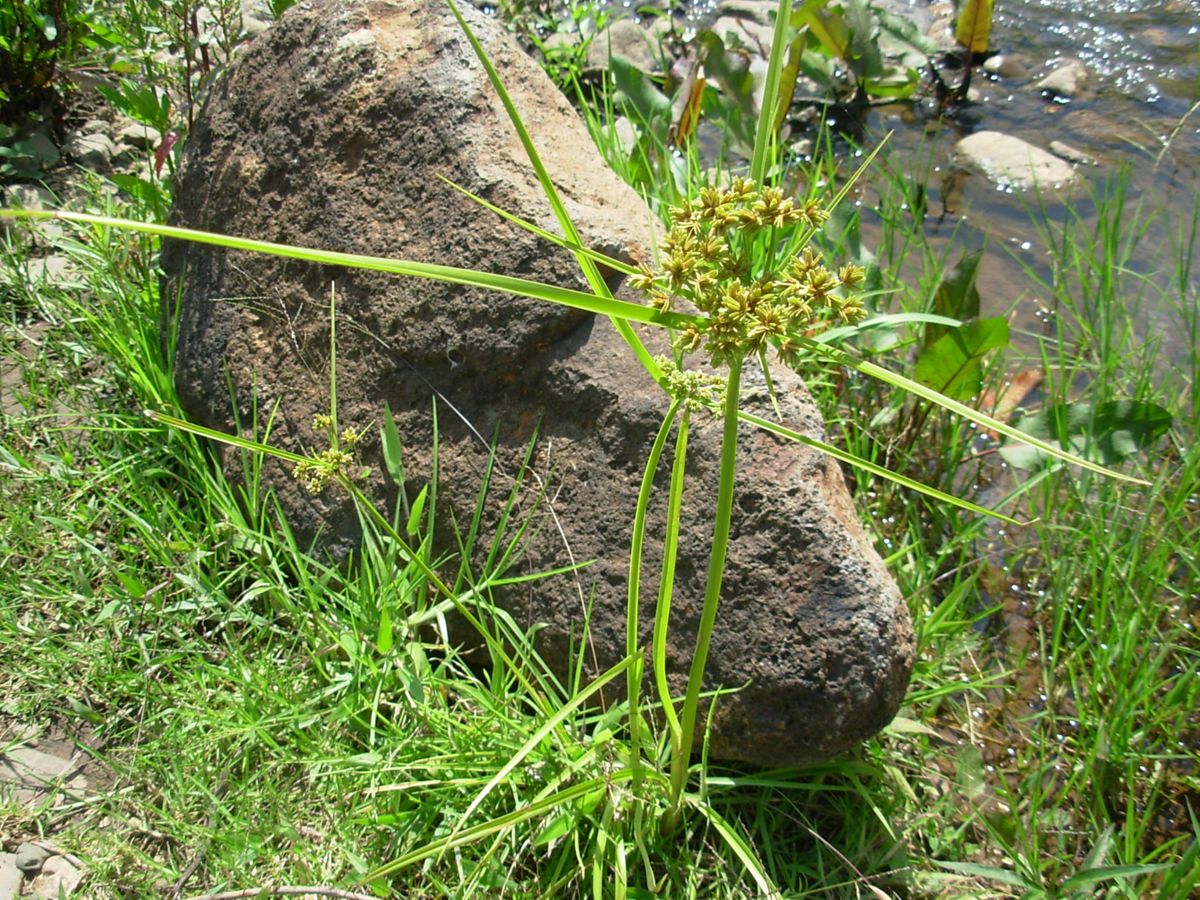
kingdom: Plantae
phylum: Tracheophyta
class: Liliopsida
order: Poales
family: Cyperaceae
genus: Cyperus
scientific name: Cyperus megalanthus
